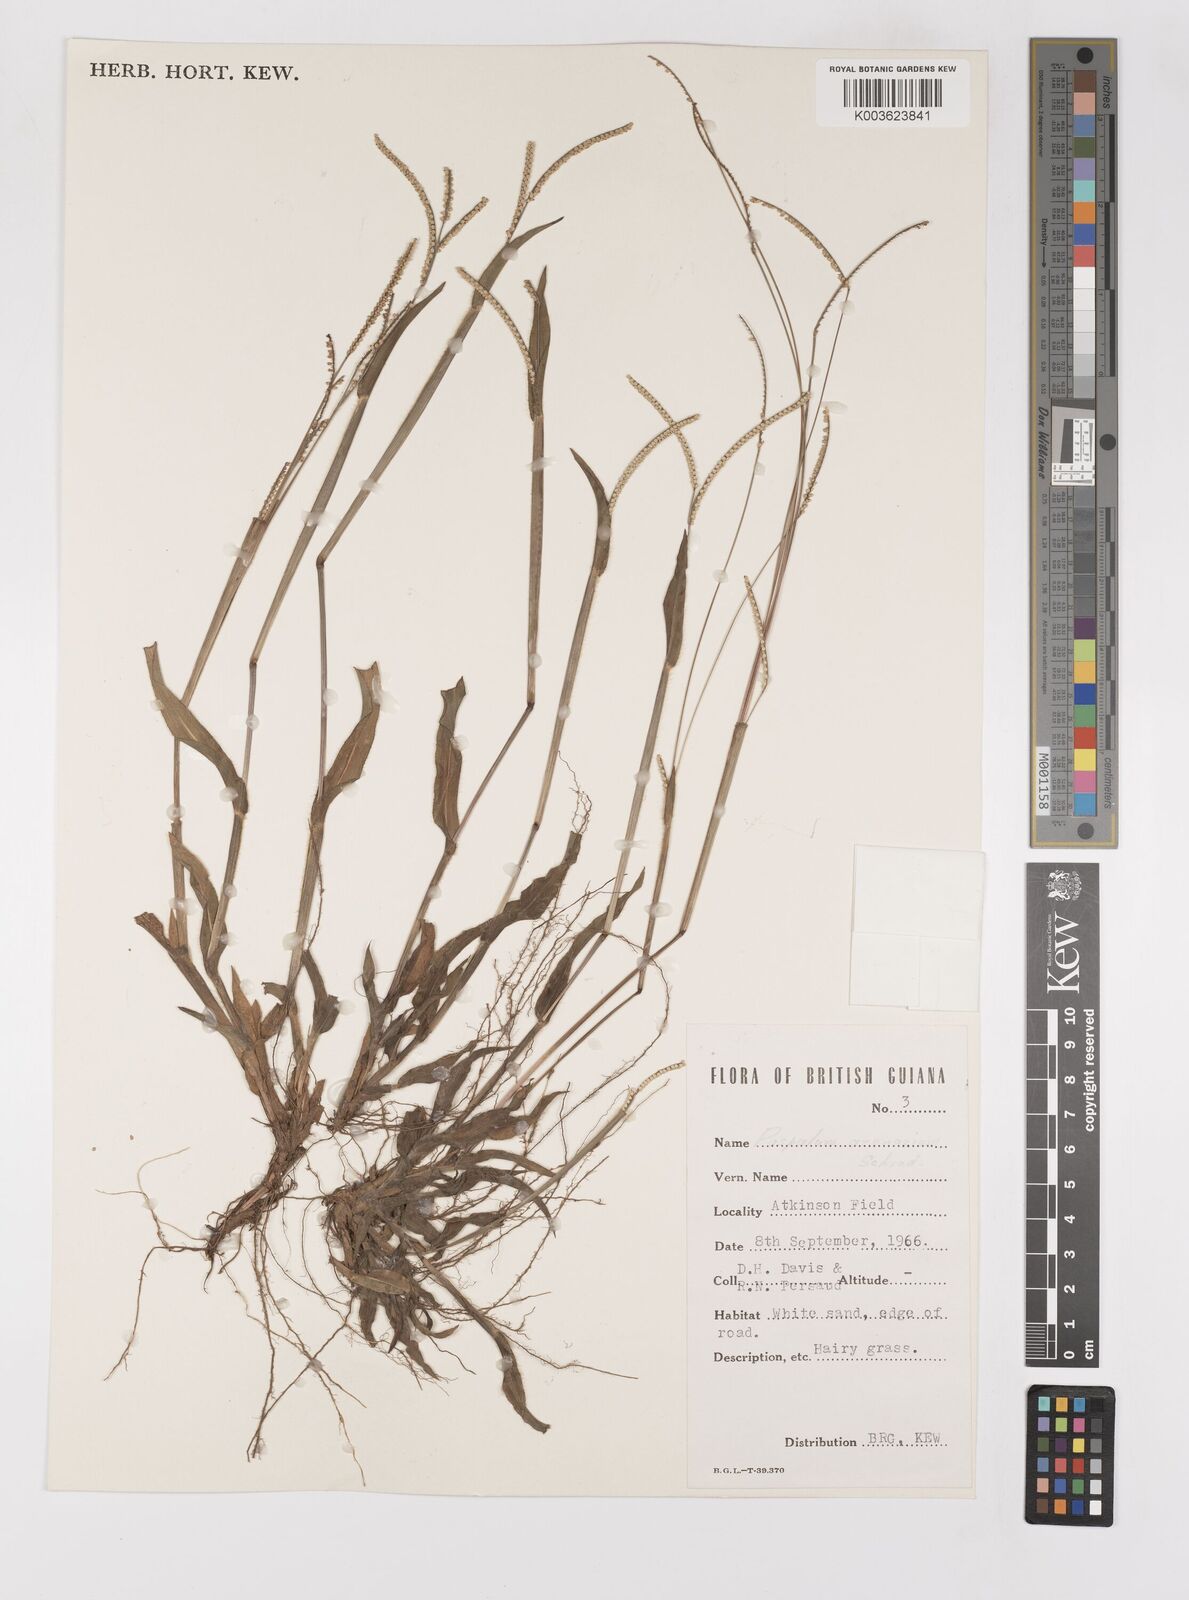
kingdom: Plantae
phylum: Tracheophyta
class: Liliopsida
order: Poales
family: Poaceae
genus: Paspalum
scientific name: Paspalum arenarium
